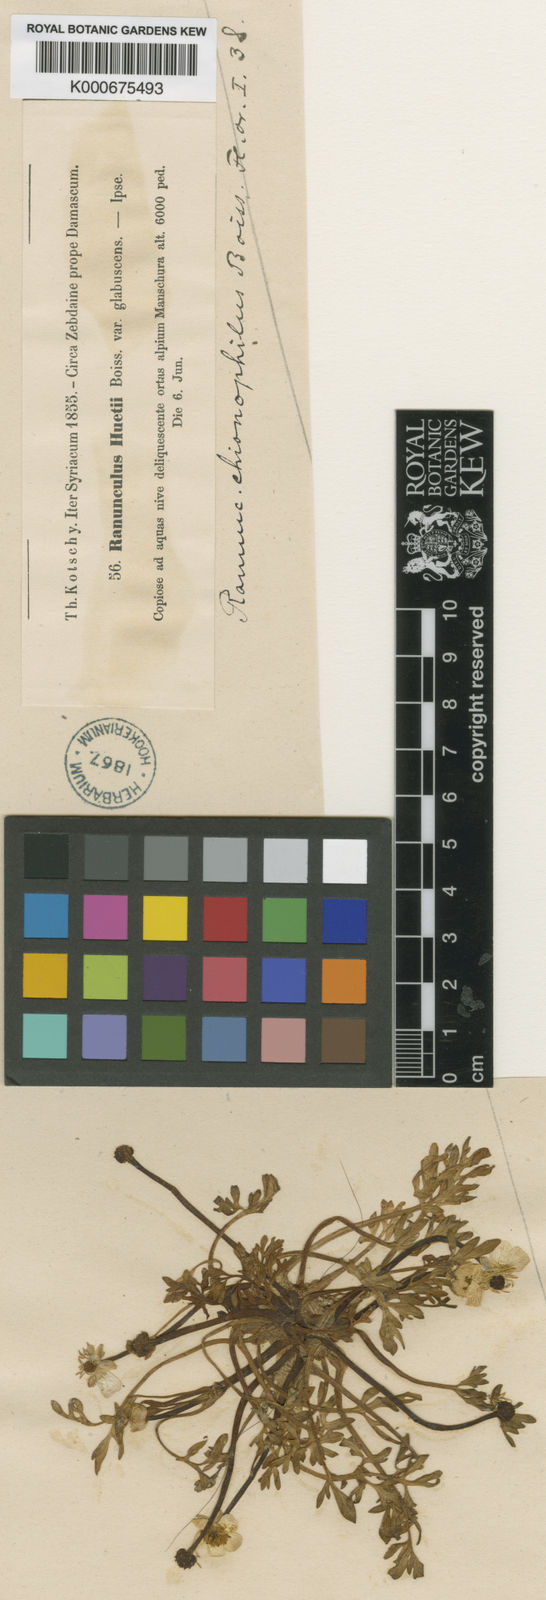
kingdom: Plantae
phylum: Tracheophyta
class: Magnoliopsida
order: Ranunculales
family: Ranunculaceae
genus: Ranunculus
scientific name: Ranunculus chionophilus
